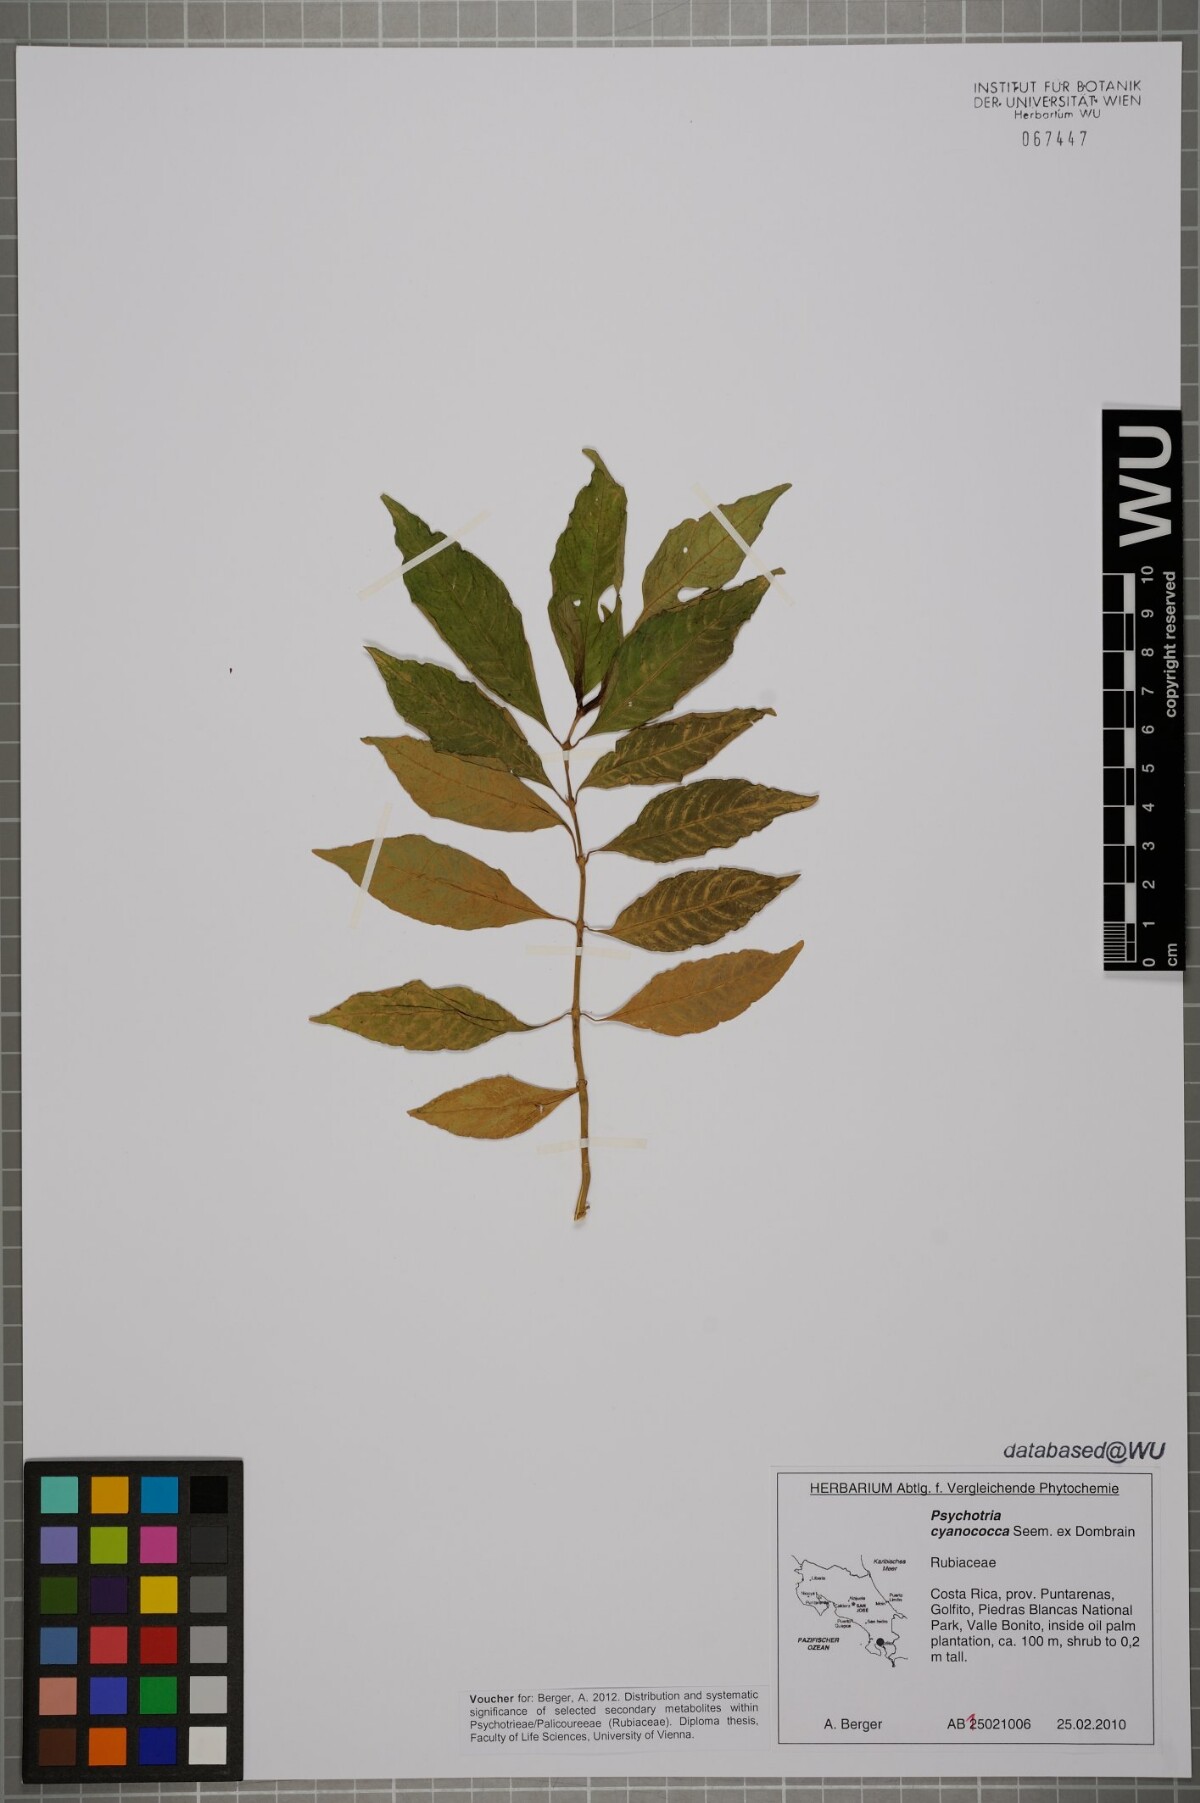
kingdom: Plantae
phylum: Tracheophyta
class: Magnoliopsida
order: Gentianales
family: Rubiaceae
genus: Palicourea
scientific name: Palicourea cyanococca
